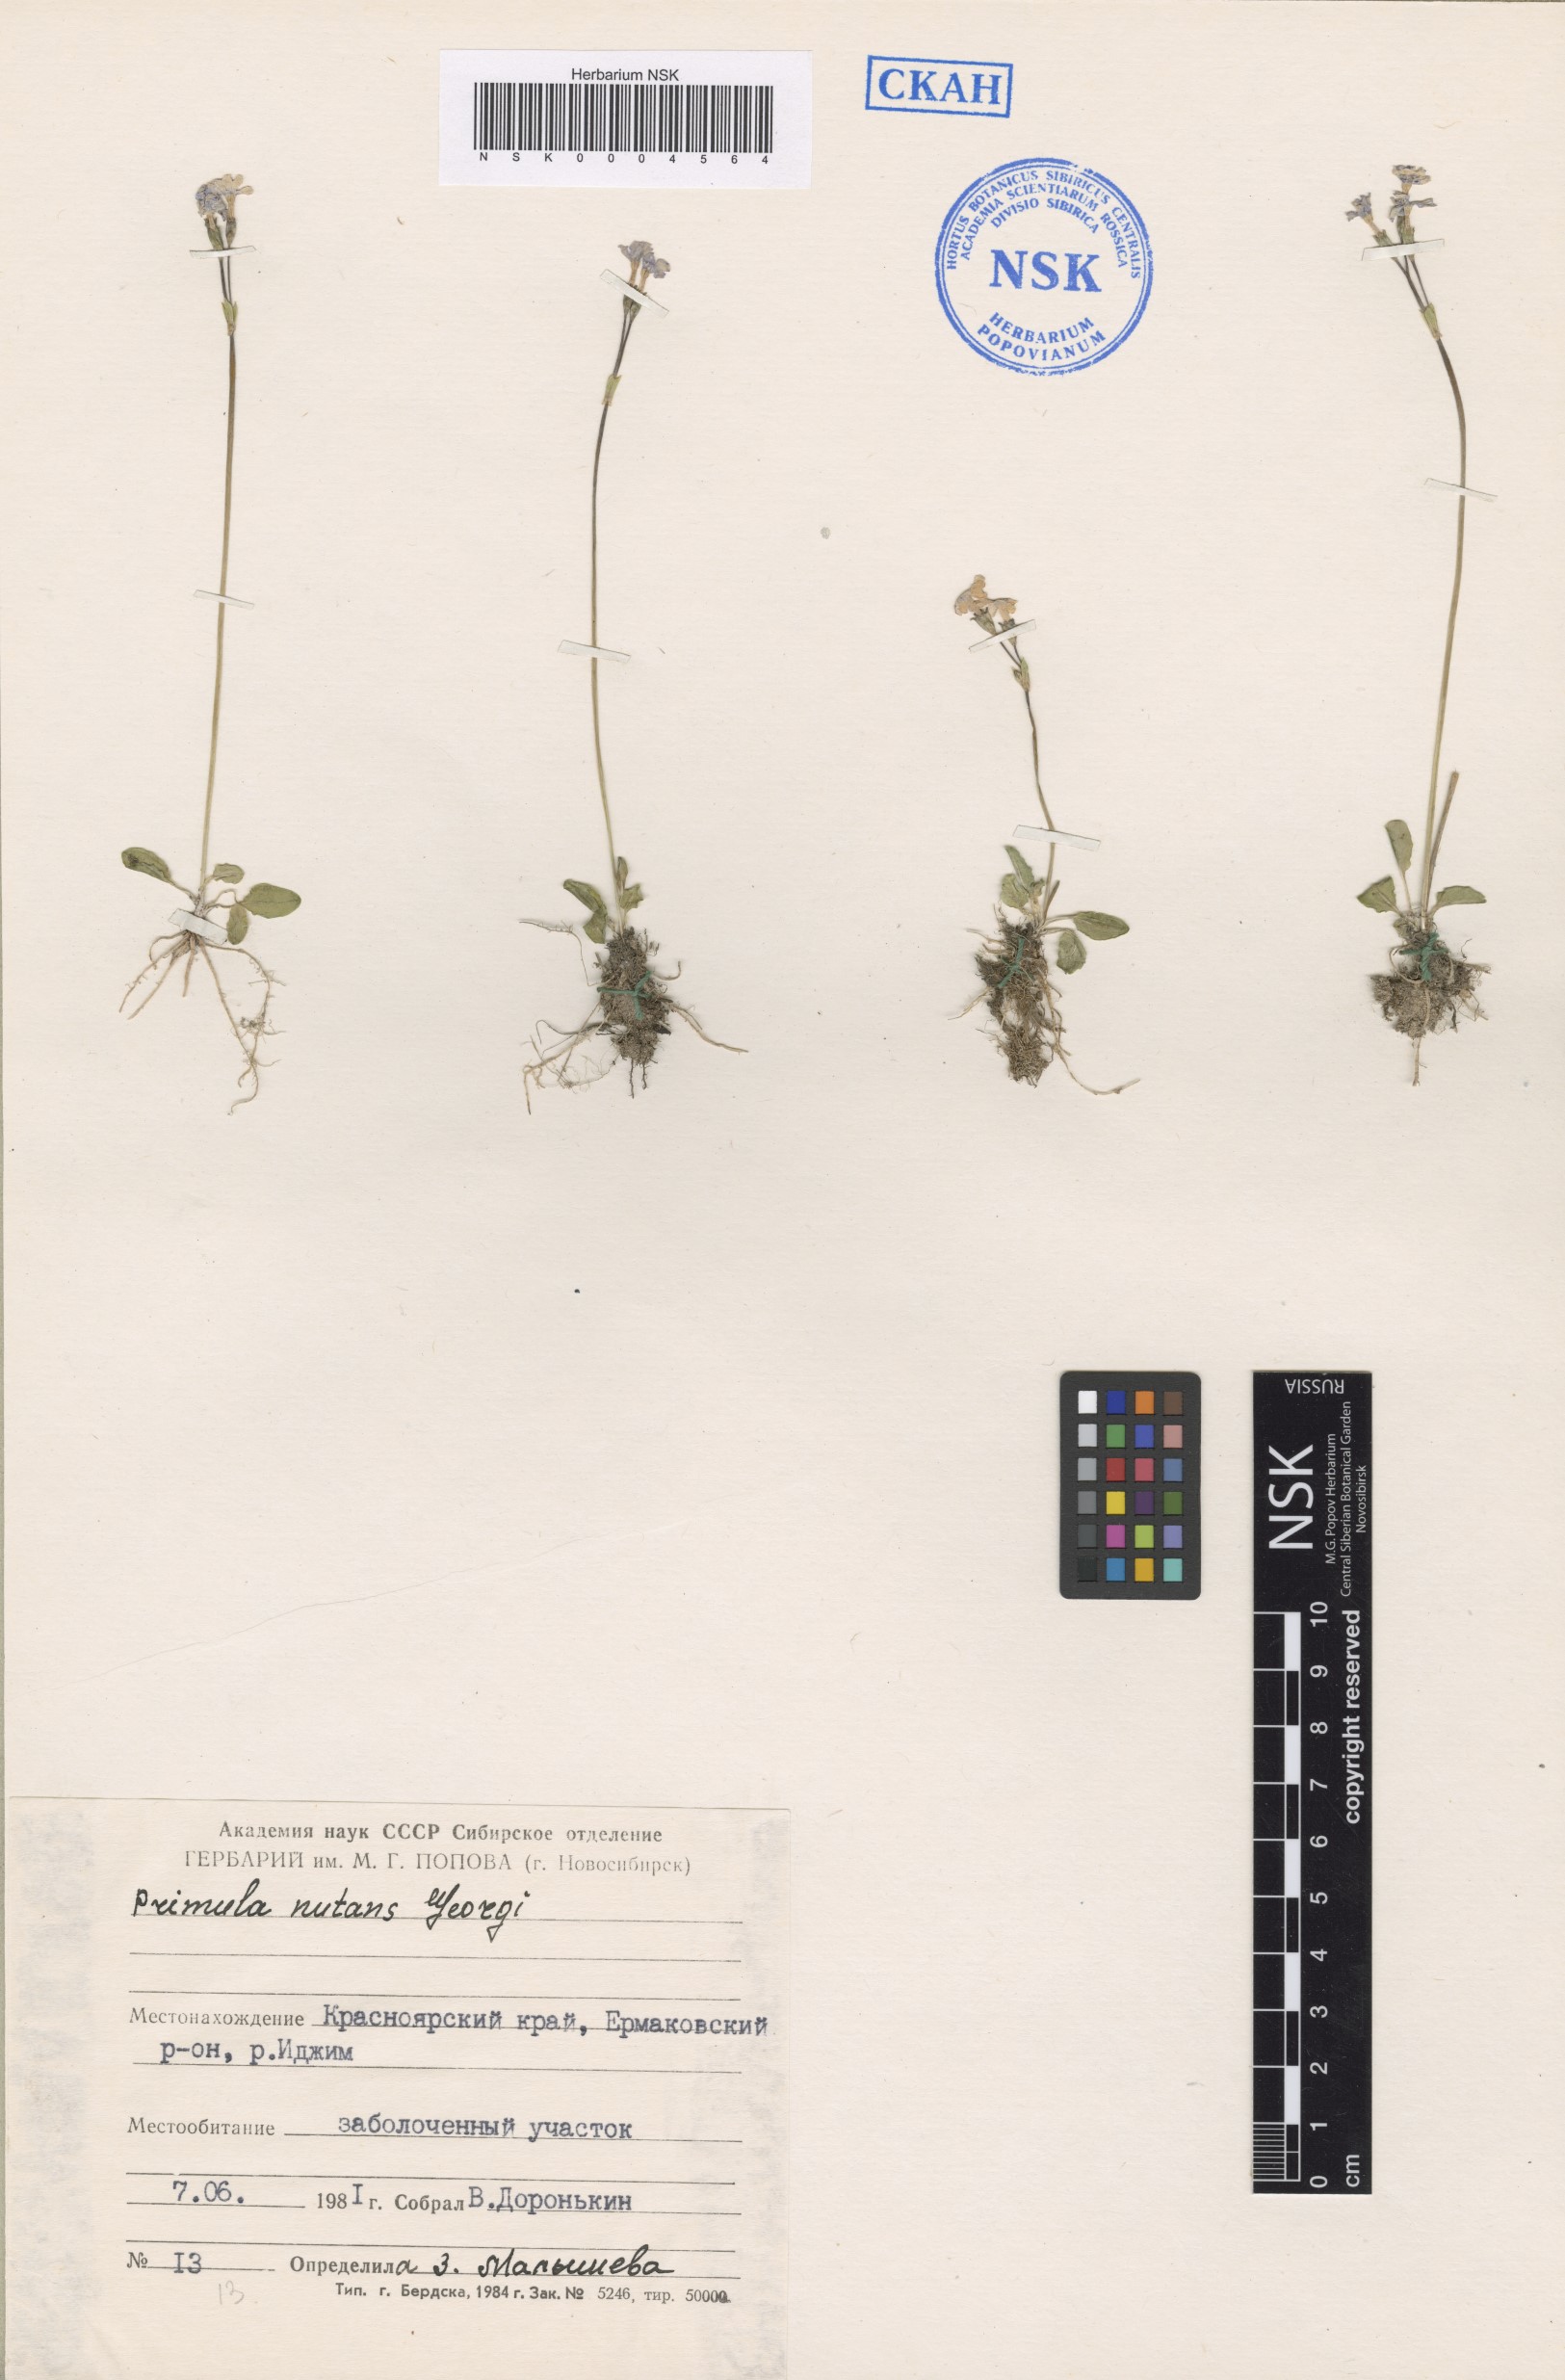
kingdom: Plantae
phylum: Tracheophyta
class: Magnoliopsida
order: Ericales
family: Primulaceae
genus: Primula
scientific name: Primula nutans
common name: Siberian primrose
